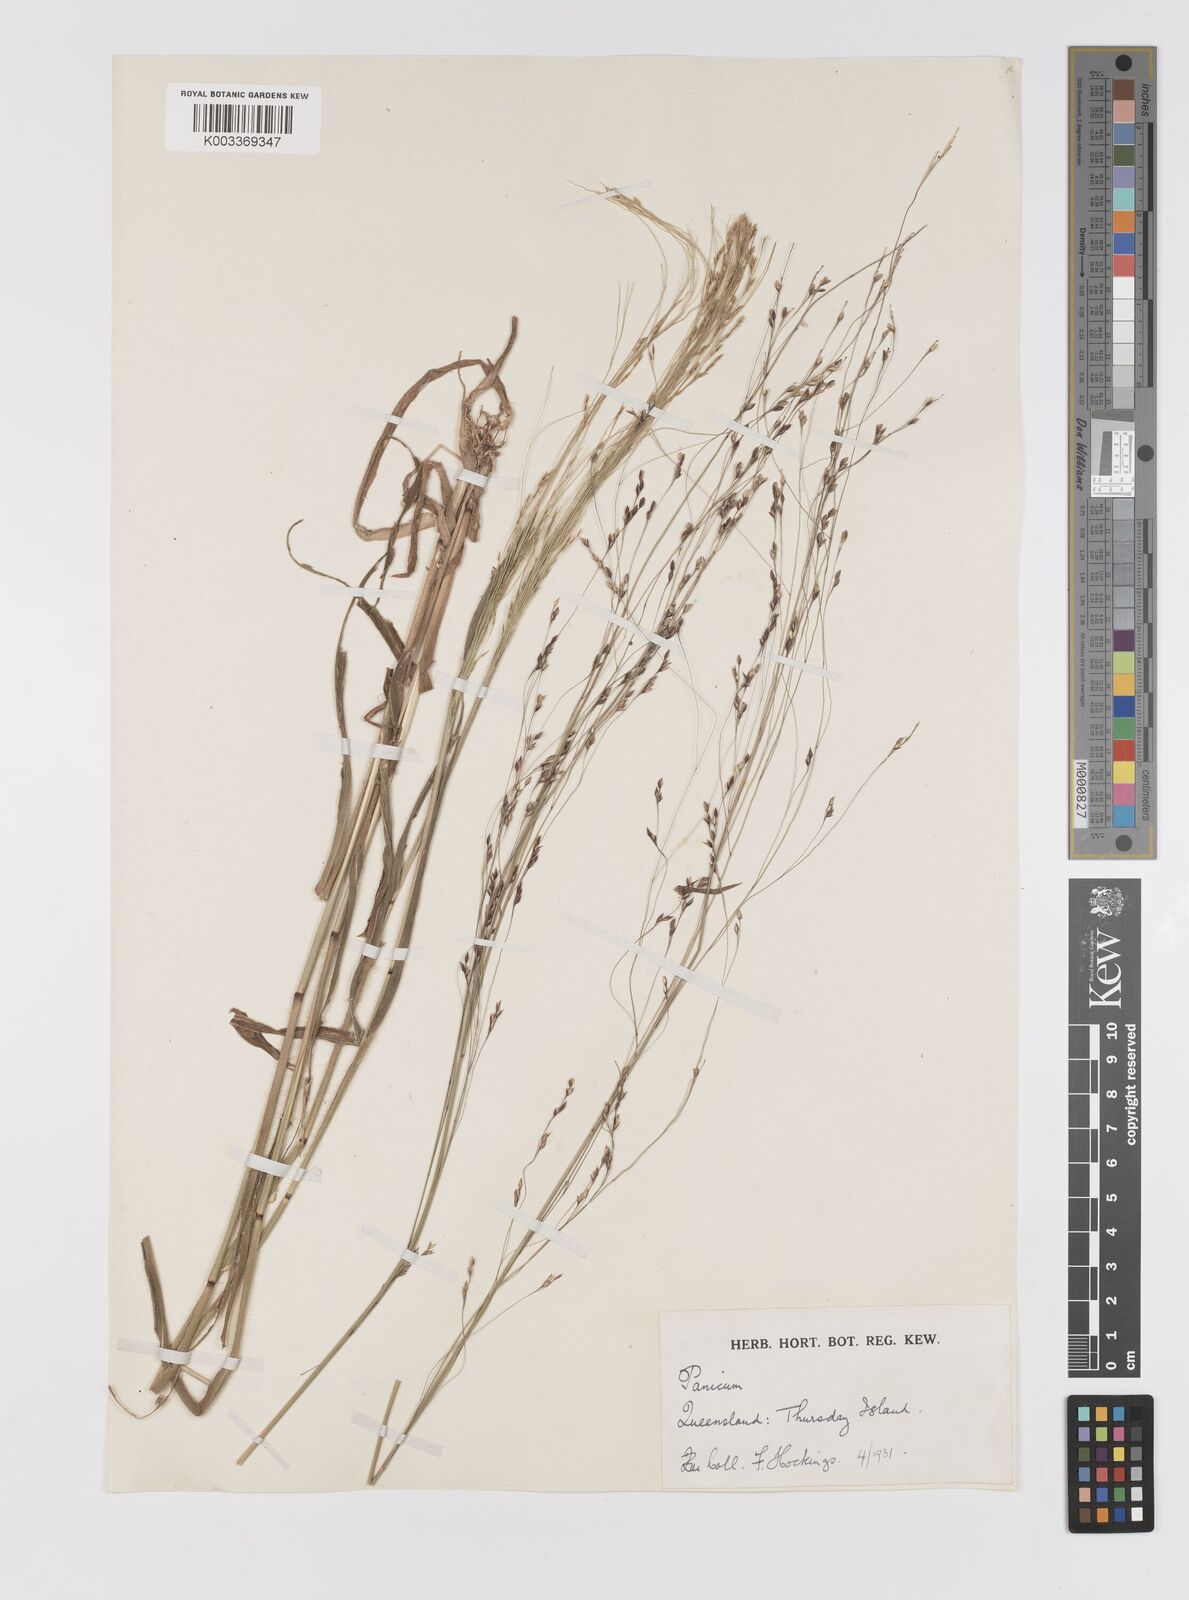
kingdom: Plantae
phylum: Tracheophyta
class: Liliopsida
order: Poales
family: Poaceae
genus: Panicum
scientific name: Panicum seminudum
